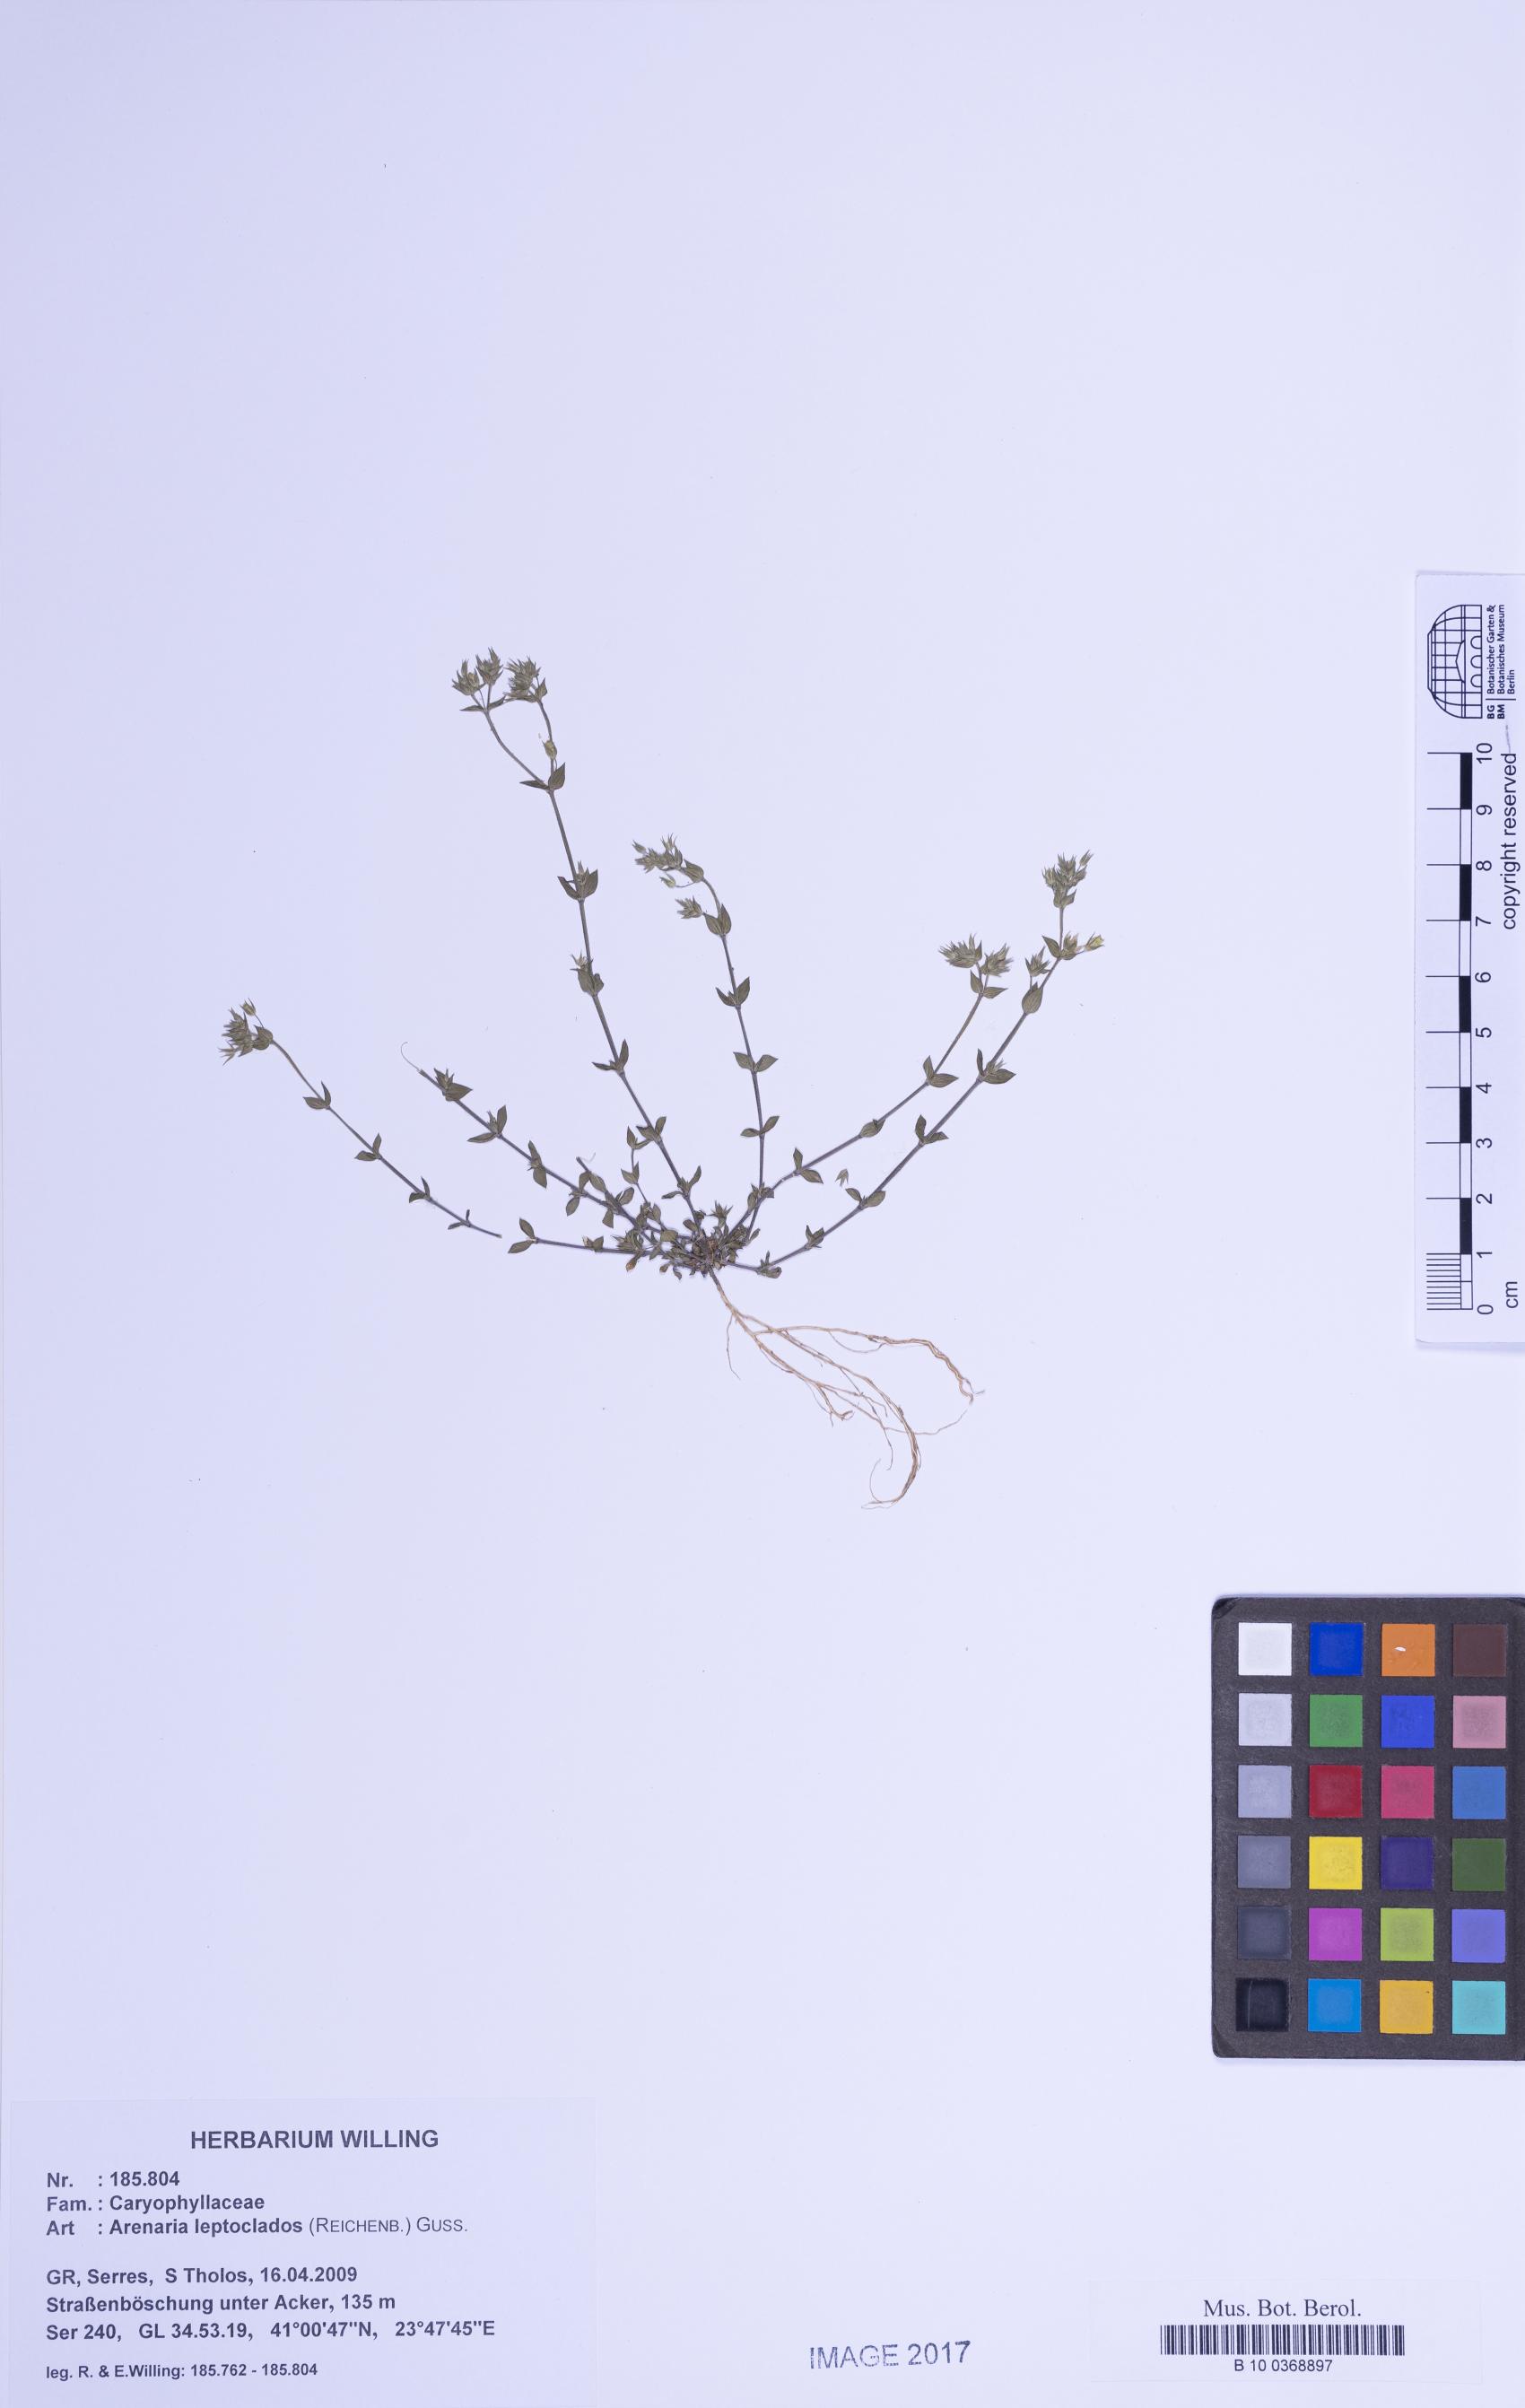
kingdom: Plantae
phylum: Tracheophyta
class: Magnoliopsida
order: Caryophyllales
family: Caryophyllaceae
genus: Arenaria
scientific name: Arenaria leptoclados
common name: Thyme-leaved sandwort
